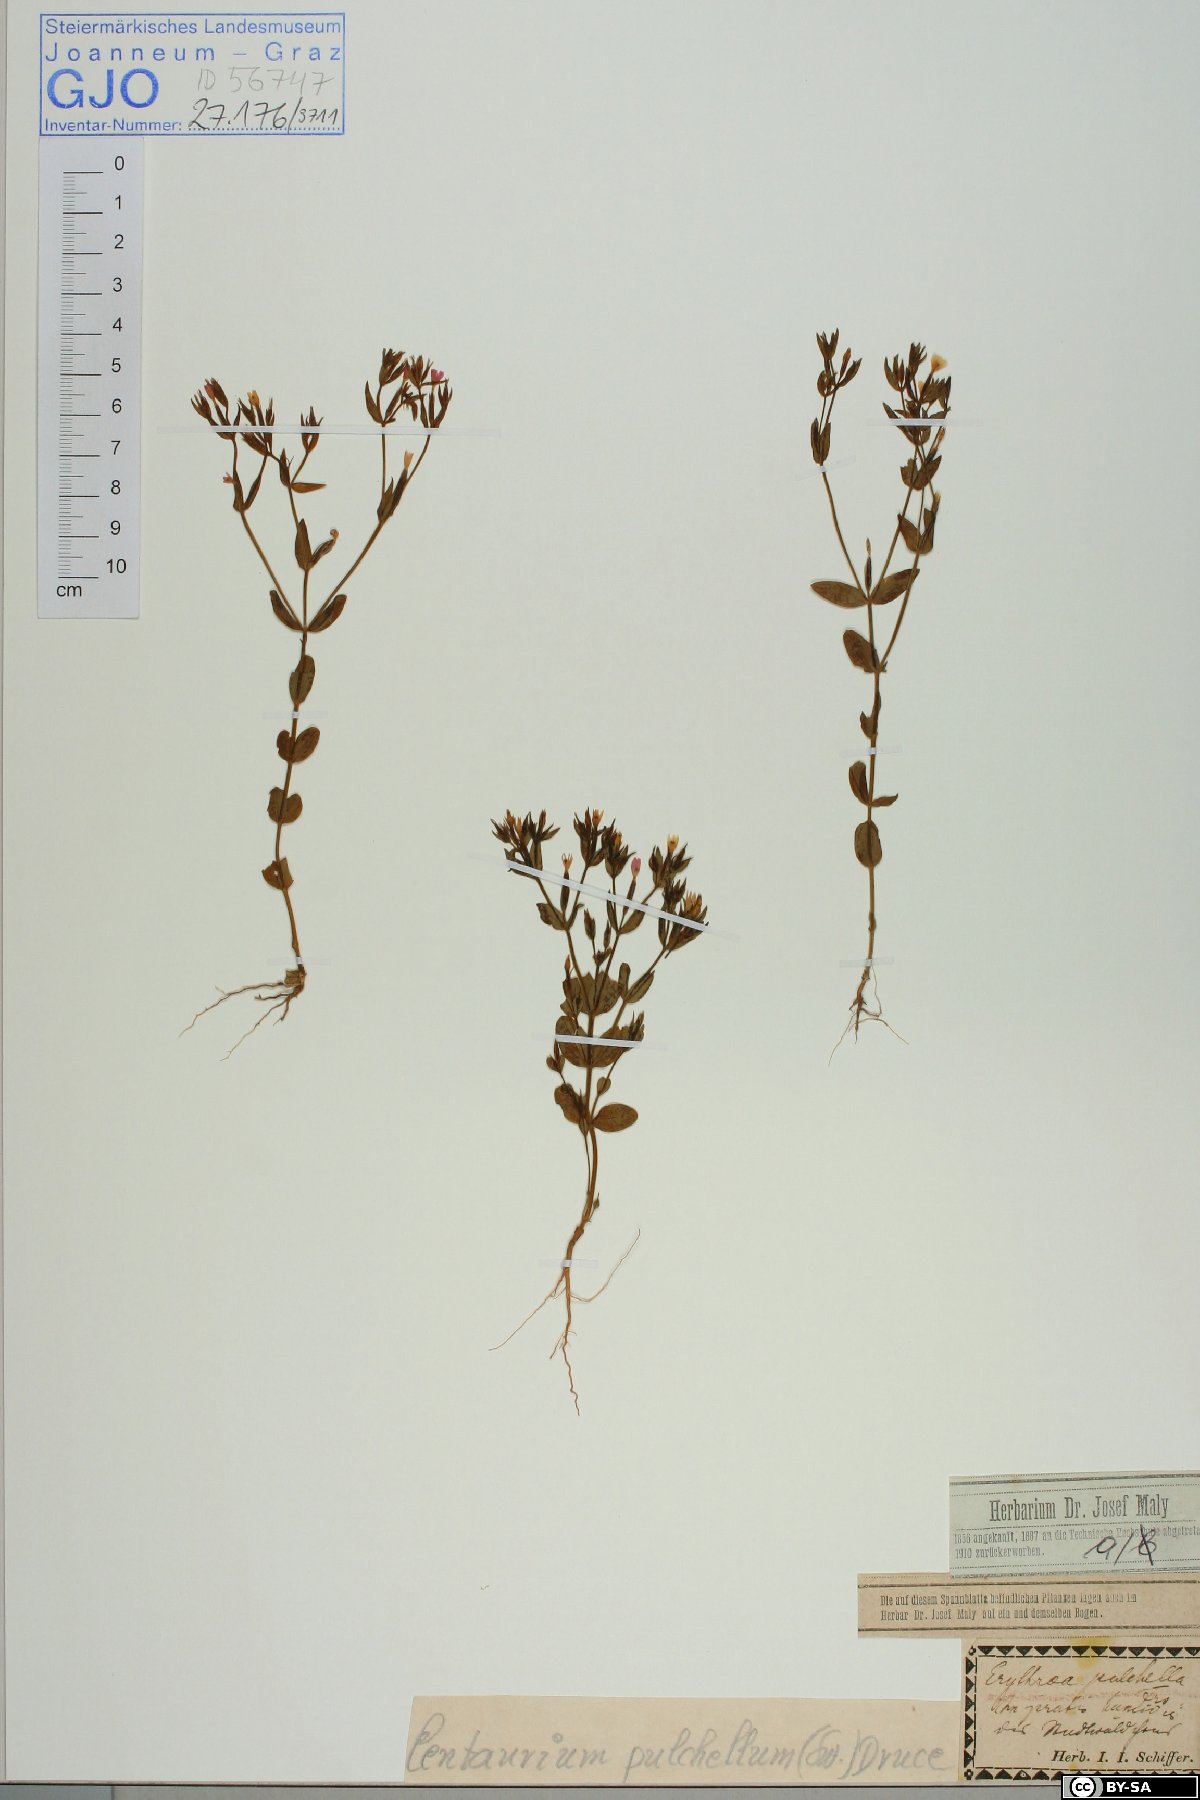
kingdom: Plantae
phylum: Tracheophyta
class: Magnoliopsida
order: Gentianales
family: Gentianaceae
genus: Centaurium
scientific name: Centaurium pulchellum
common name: Lesser centaury
